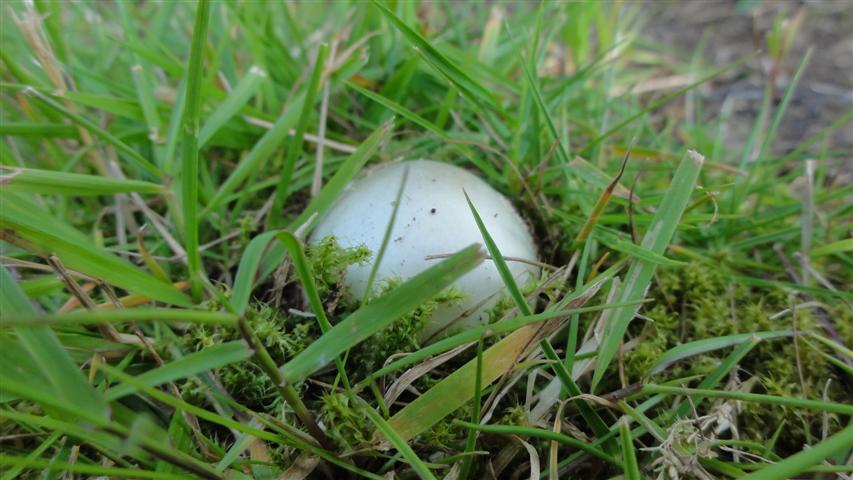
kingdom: Fungi
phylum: Basidiomycota
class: Agaricomycetes
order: Agaricales
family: Amanitaceae
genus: Amanita
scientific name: Amanita phalloides
